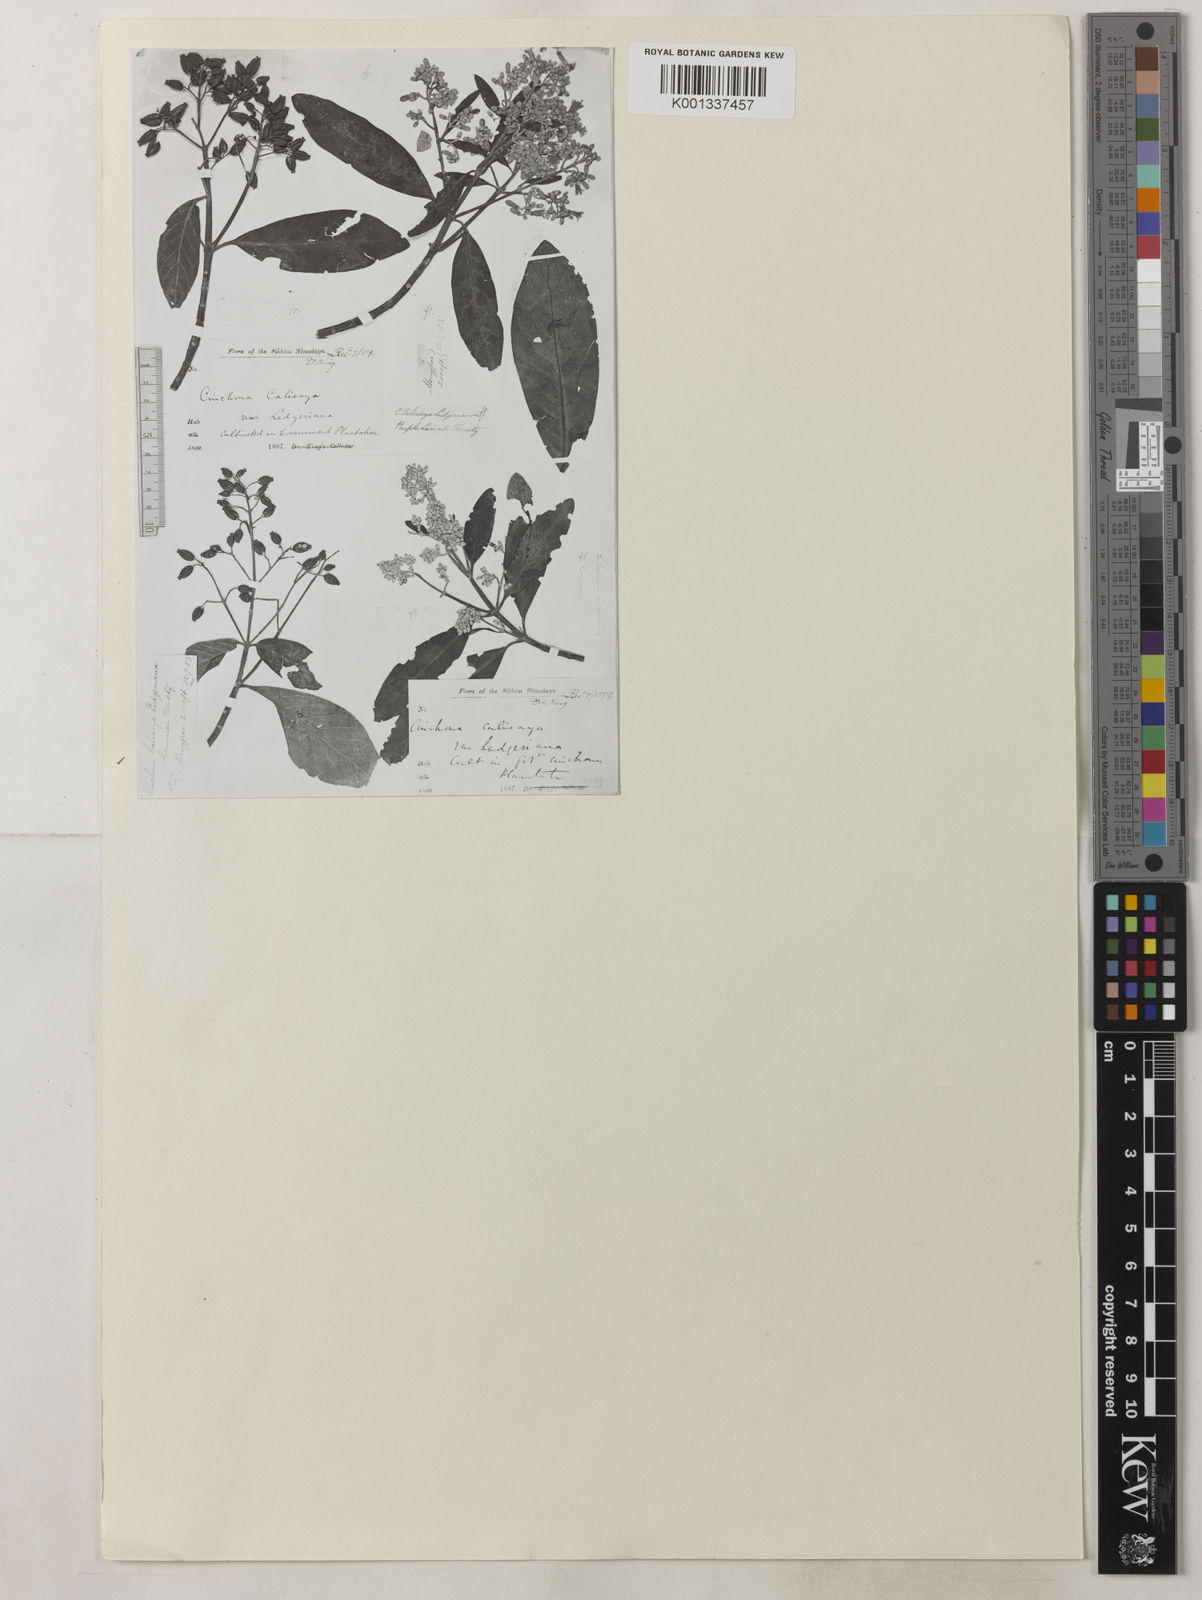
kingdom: Plantae
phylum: Tracheophyta
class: Magnoliopsida
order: Gentianales
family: Rubiaceae
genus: Cinchona
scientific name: Cinchona calisaya
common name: Ledgerbark
